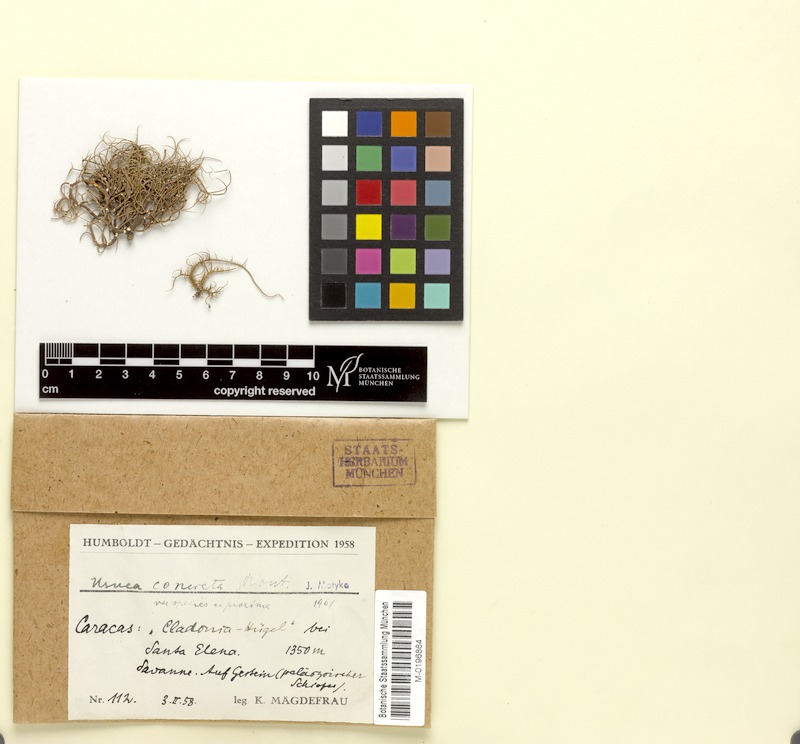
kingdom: Fungi
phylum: Ascomycota
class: Lecanoromycetes
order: Lecanorales
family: Parmeliaceae
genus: Usnea
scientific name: Usnea
